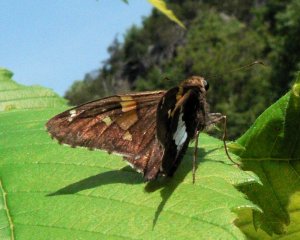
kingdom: Animalia
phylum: Arthropoda
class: Insecta
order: Lepidoptera
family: Hesperiidae
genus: Epargyreus
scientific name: Epargyreus clarus
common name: Silver-spotted Skipper
